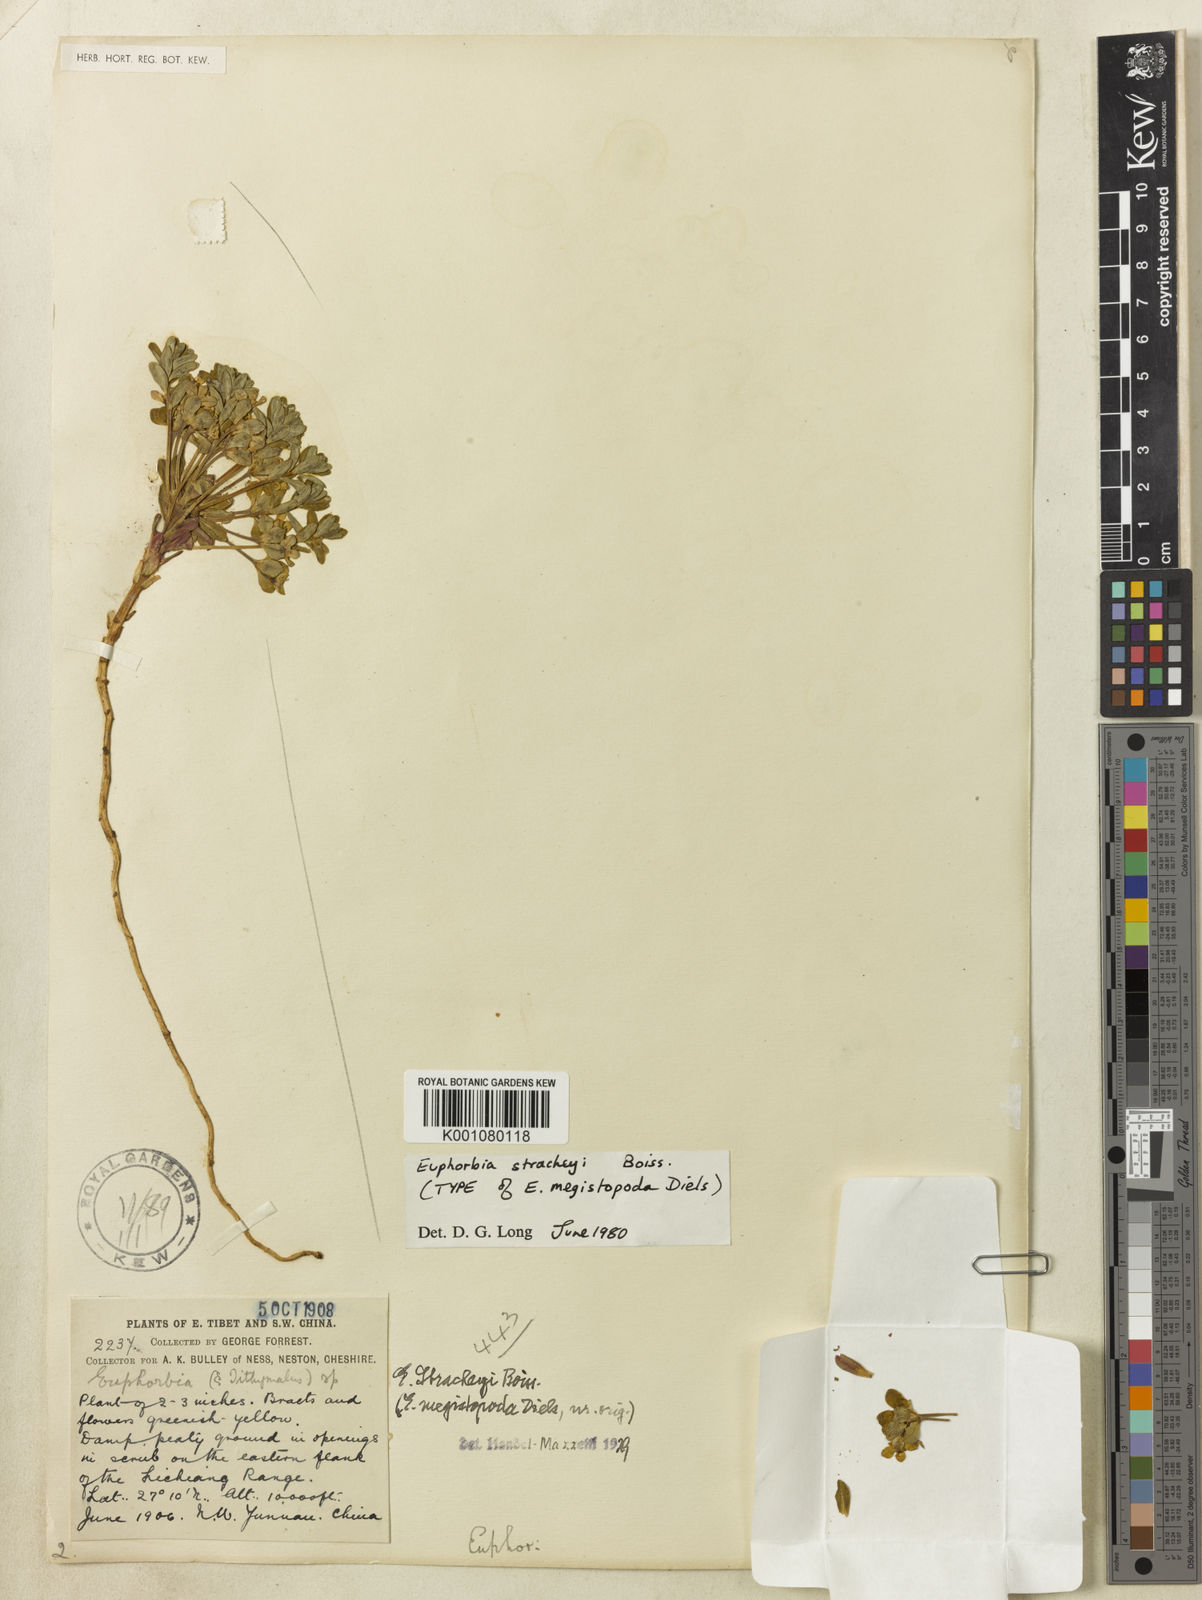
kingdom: Plantae
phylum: Tracheophyta
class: Magnoliopsida
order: Malpighiales
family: Euphorbiaceae
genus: Euphorbia
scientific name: Euphorbia stracheyi
